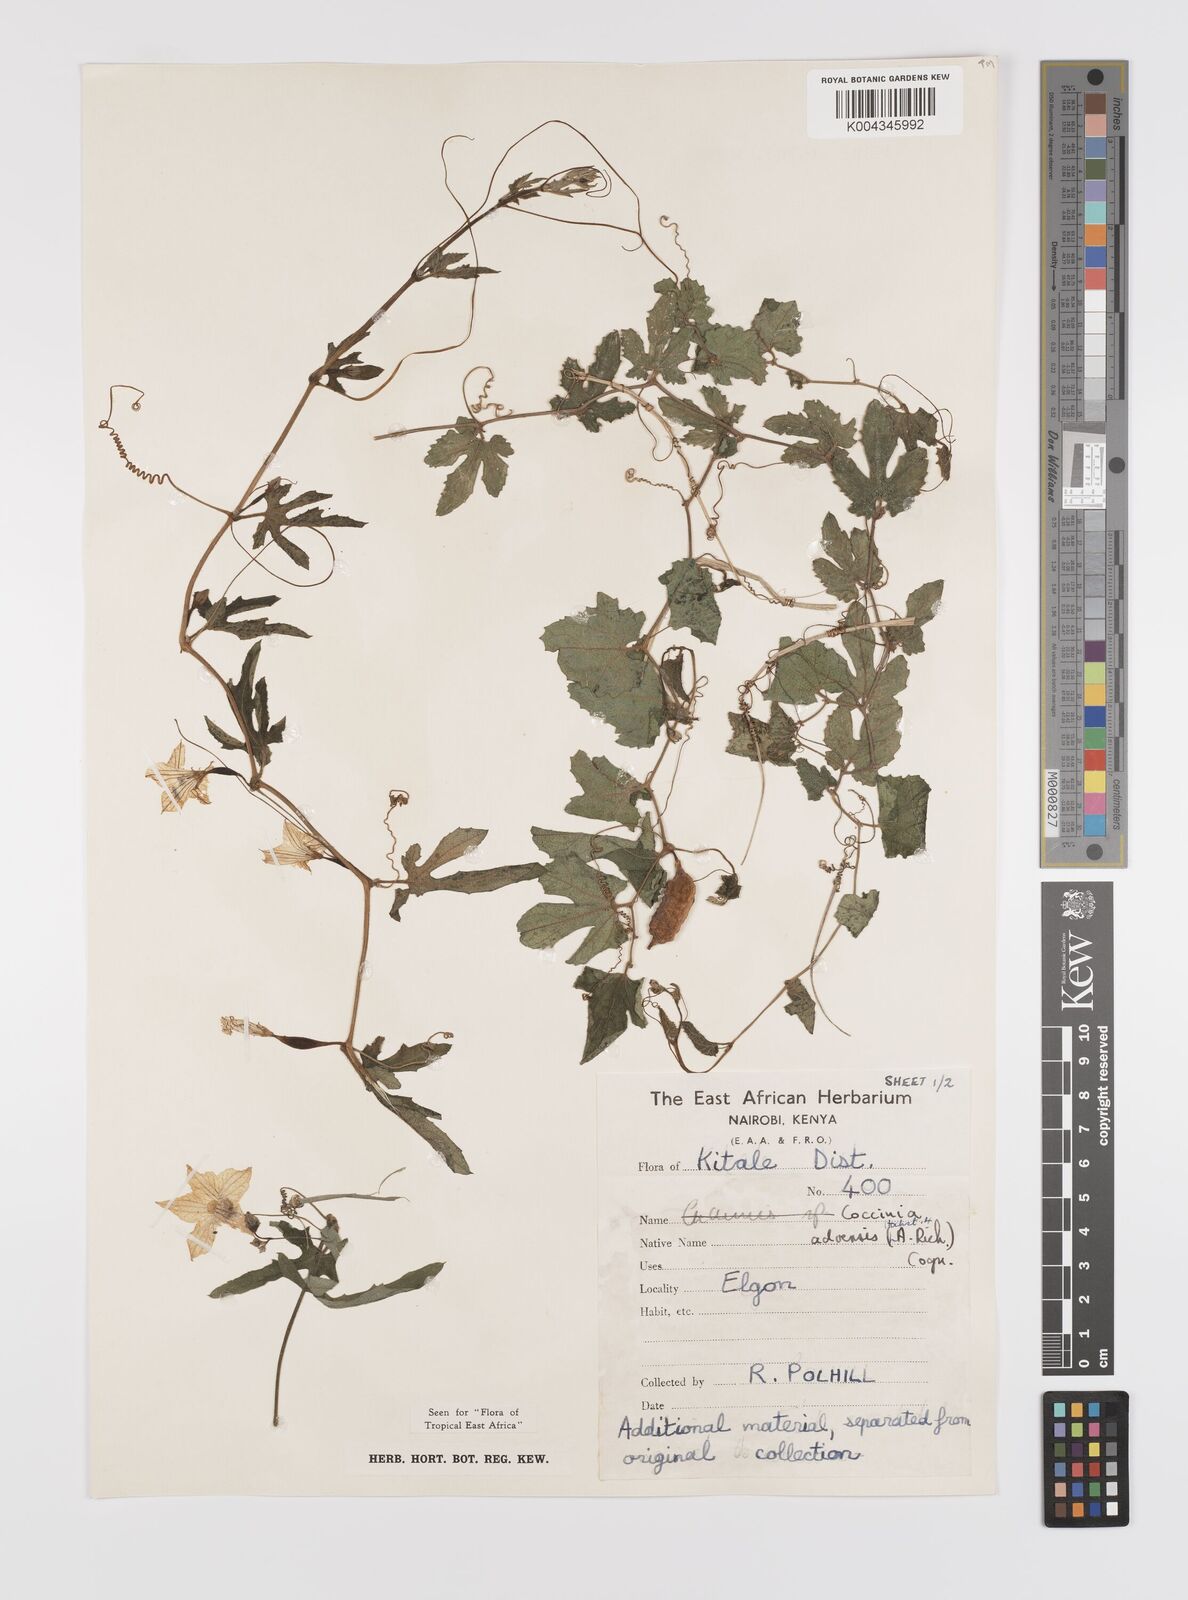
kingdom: Plantae
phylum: Tracheophyta
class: Magnoliopsida
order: Cucurbitales
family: Cucurbitaceae
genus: Coccinia
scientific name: Coccinia adoensis
